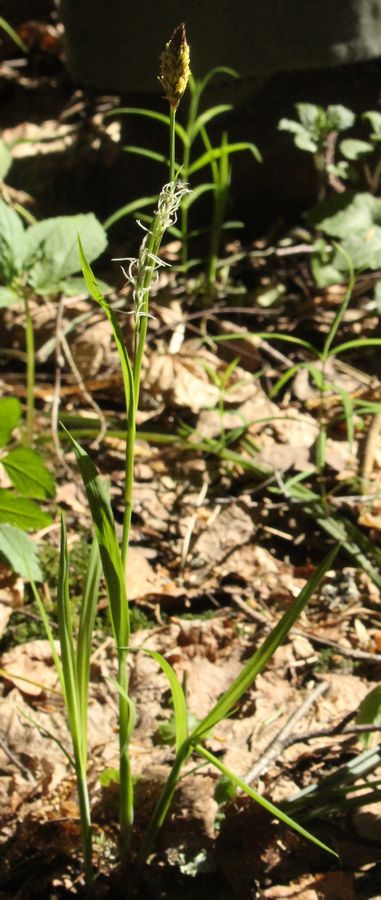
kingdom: Plantae
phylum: Tracheophyta
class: Liliopsida
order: Poales
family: Cyperaceae
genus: Carex
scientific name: Carex
